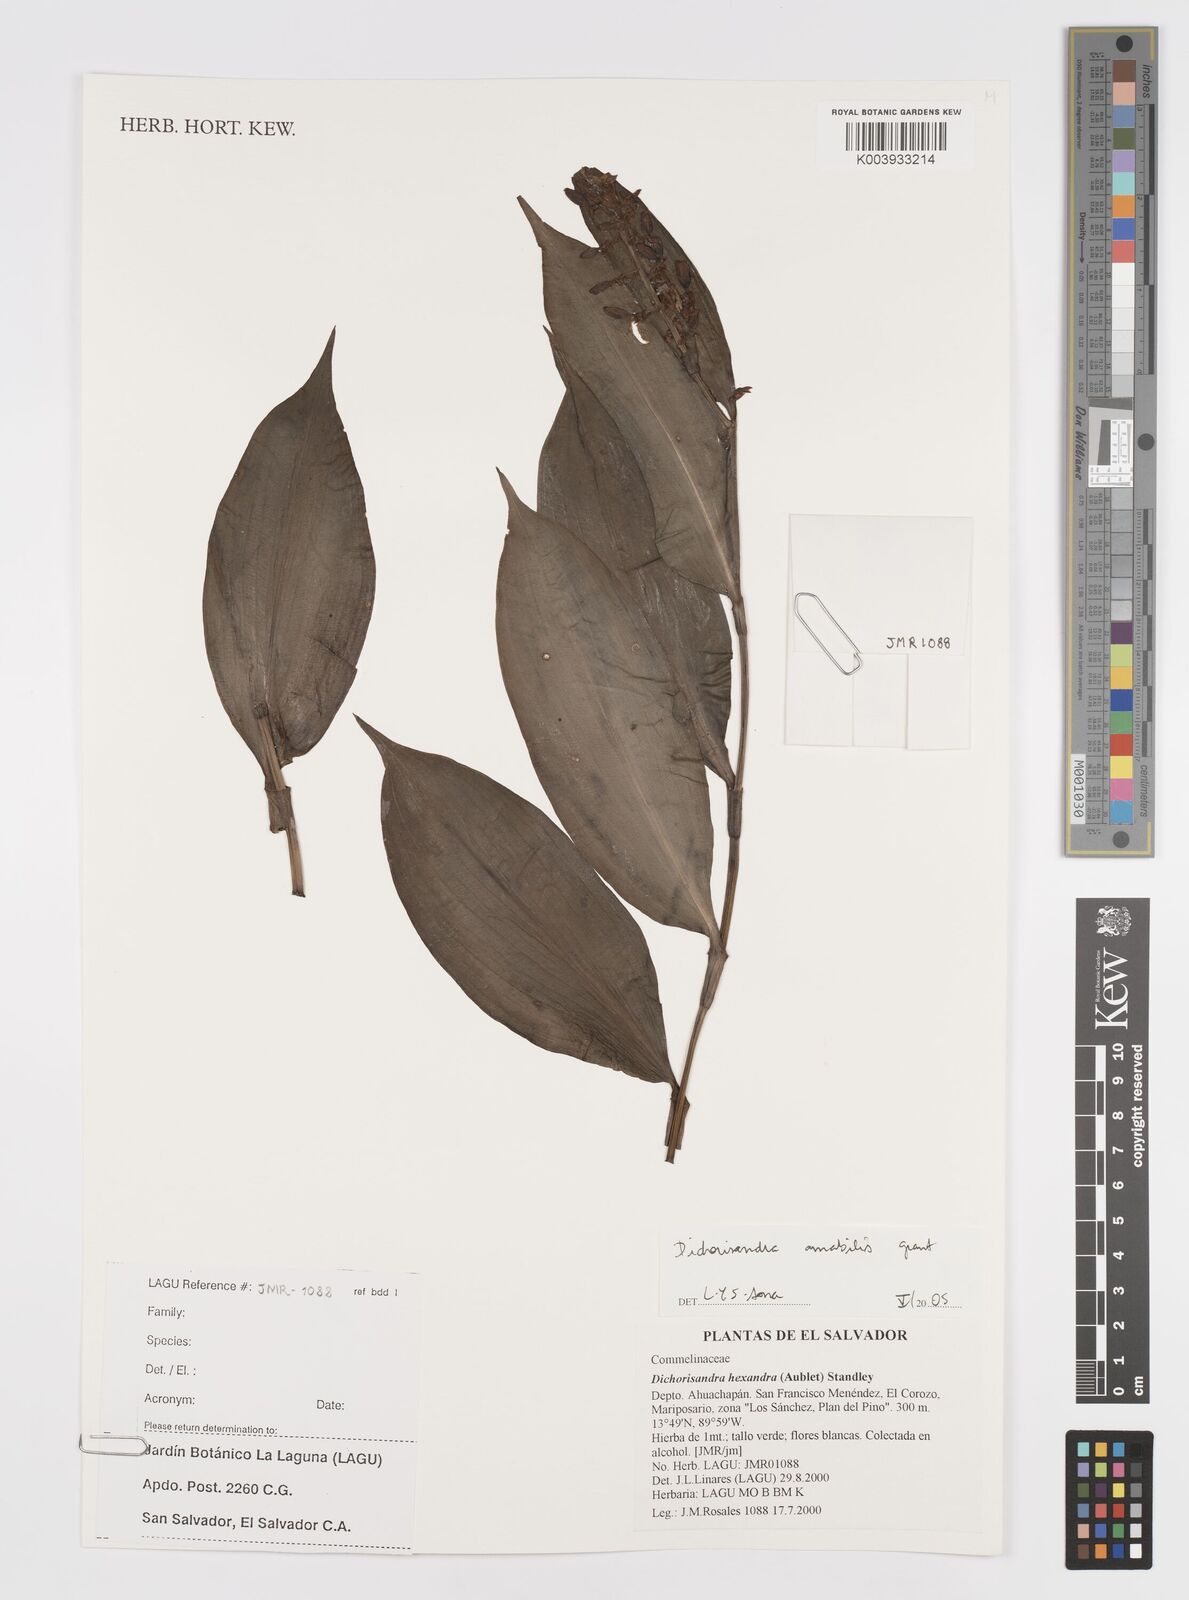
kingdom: Plantae
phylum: Tracheophyta
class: Liliopsida
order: Commelinales
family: Commelinaceae
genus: Dichorisandra
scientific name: Dichorisandra amabilis
